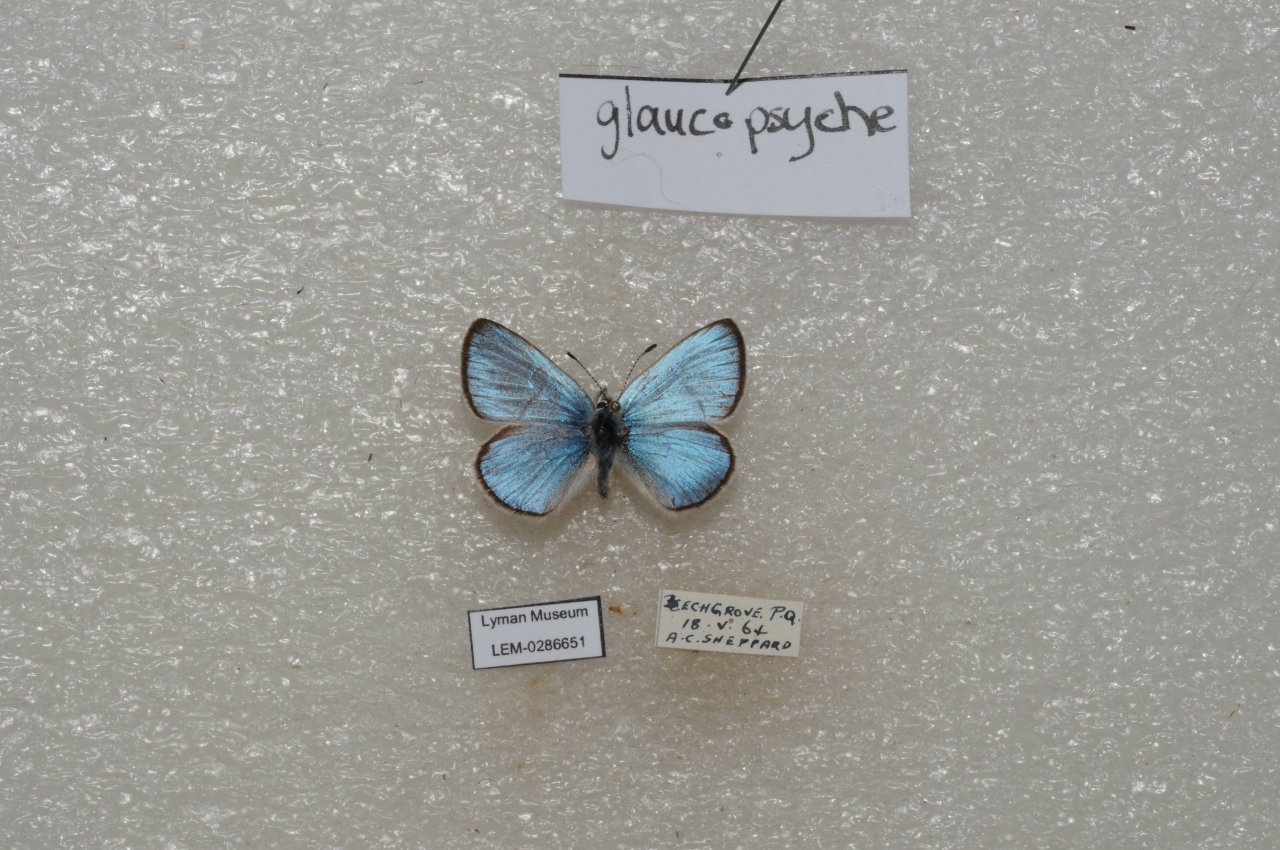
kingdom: Animalia
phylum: Arthropoda
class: Insecta
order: Lepidoptera
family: Lycaenidae
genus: Glaucopsyche
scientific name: Glaucopsyche lygdamus
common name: Silvery Blue
